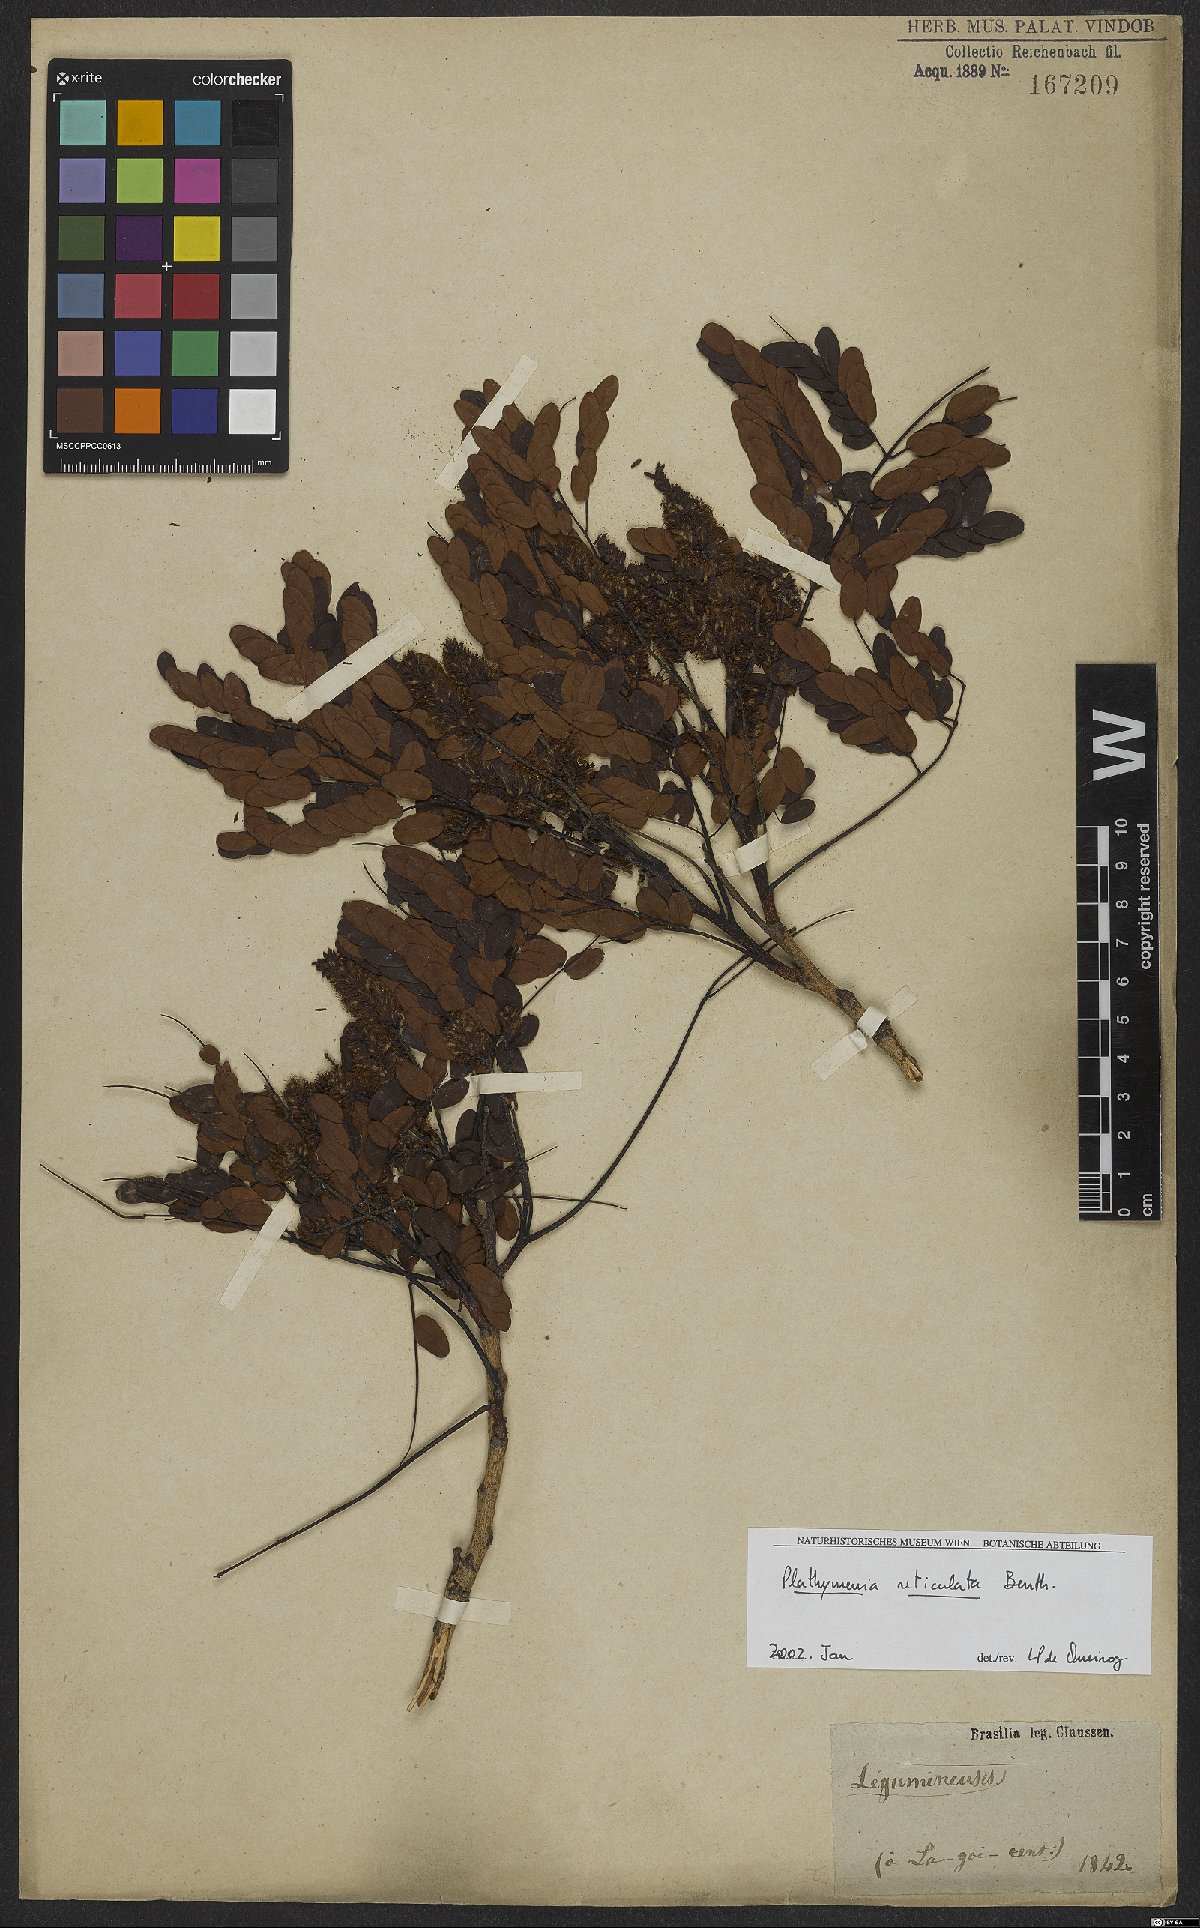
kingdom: Plantae
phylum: Tracheophyta
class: Magnoliopsida
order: Fabales
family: Fabaceae
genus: Plathymenia
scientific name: Plathymenia reticulata
